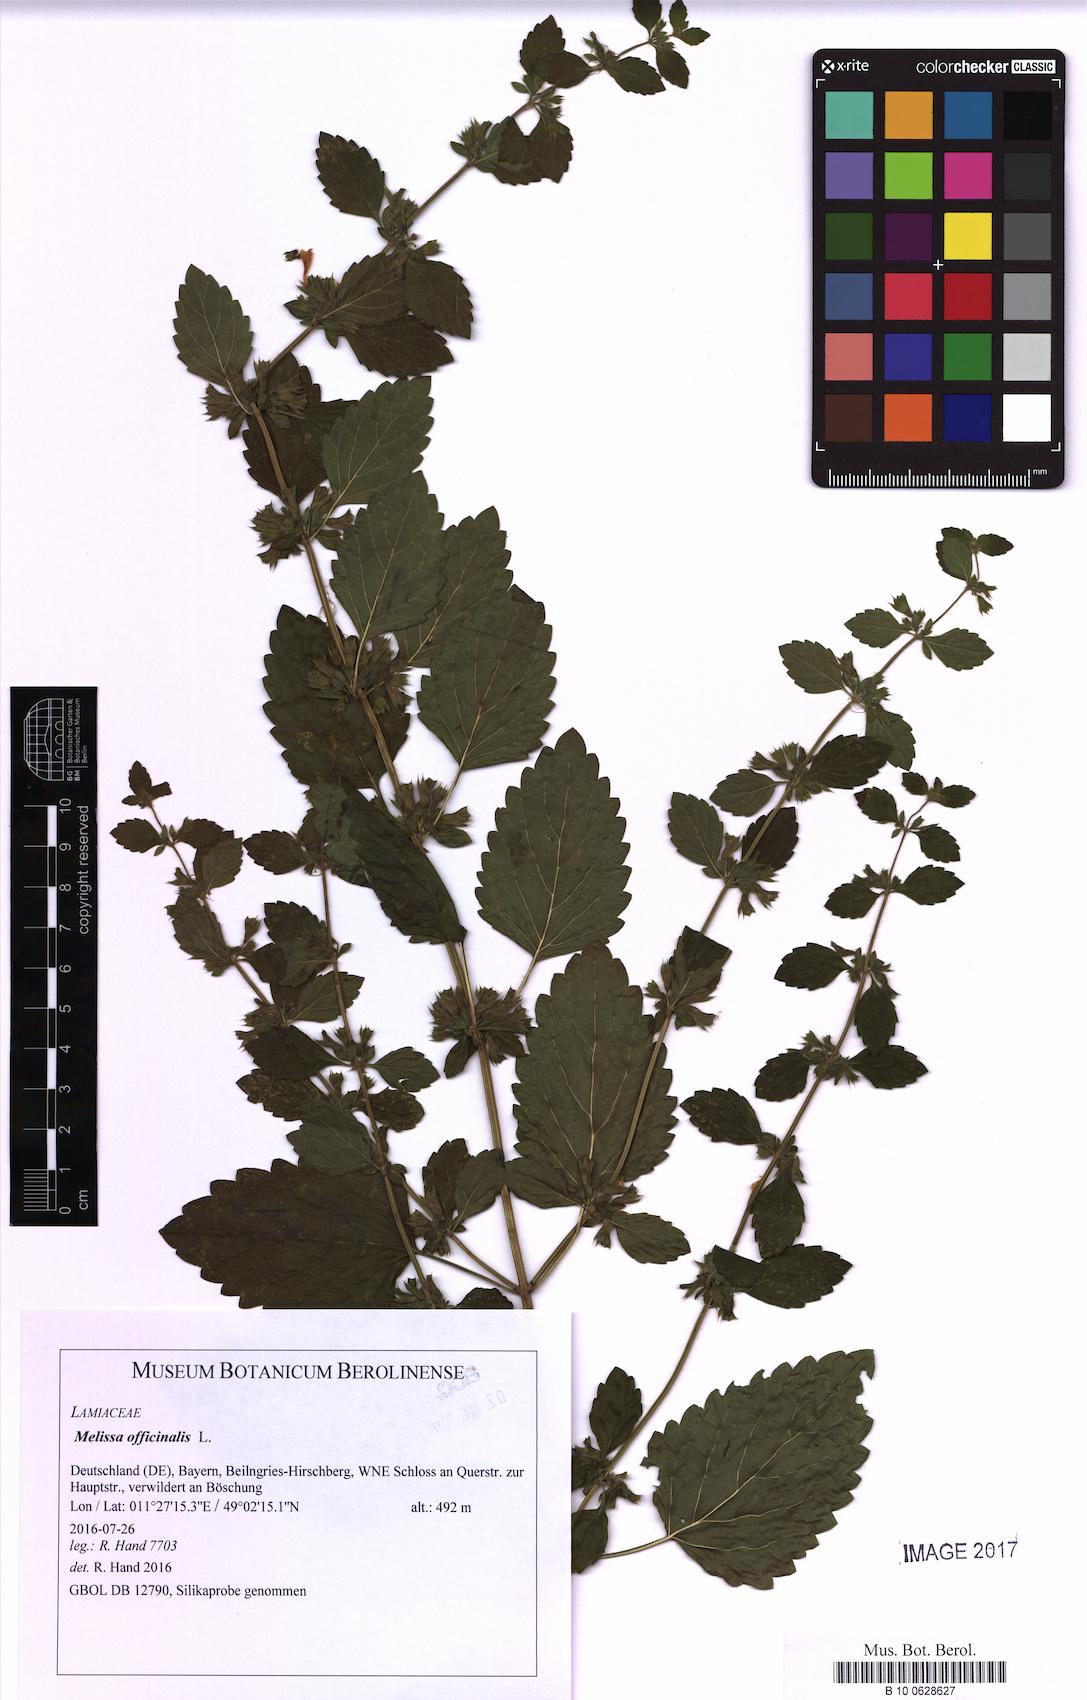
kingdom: Plantae
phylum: Tracheophyta
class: Magnoliopsida
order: Lamiales
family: Lamiaceae
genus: Melissa
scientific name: Melissa officinalis
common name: Balm
